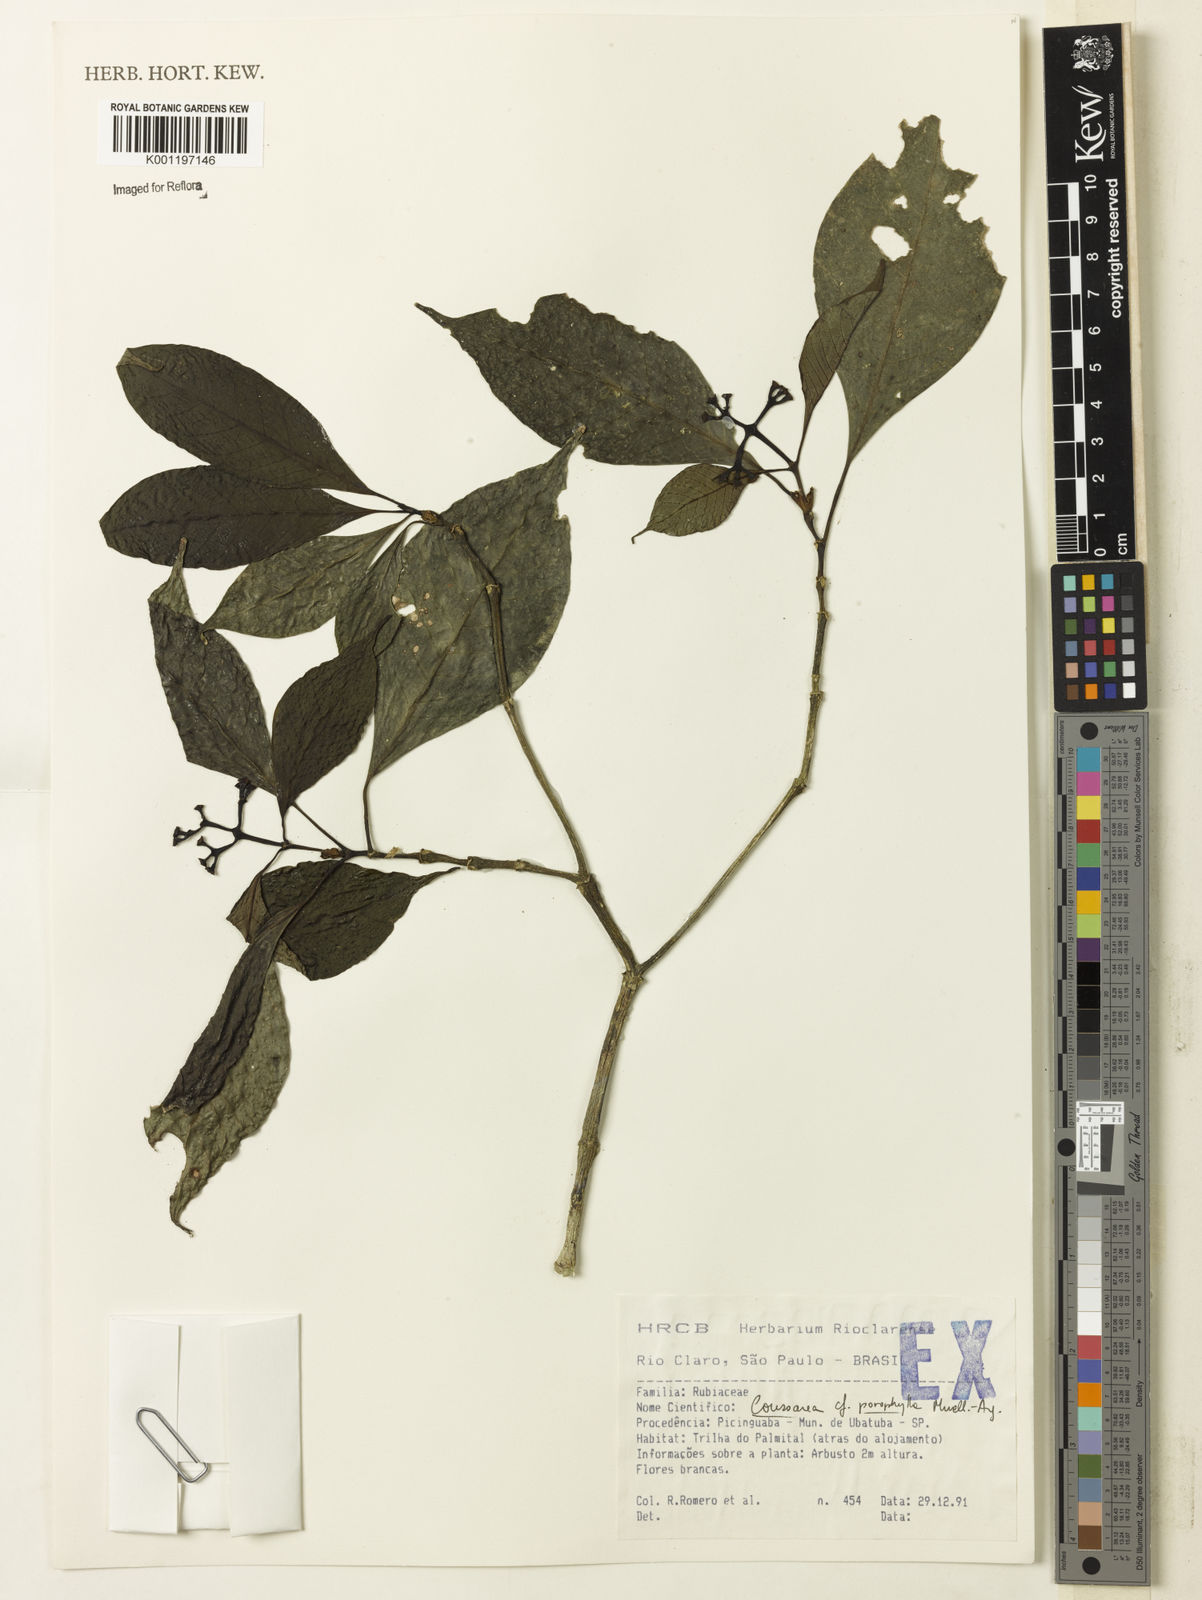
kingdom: Plantae
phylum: Tracheophyta
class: Magnoliopsida
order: Gentianales
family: Rubiaceae
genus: Coussarea
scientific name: Coussarea
